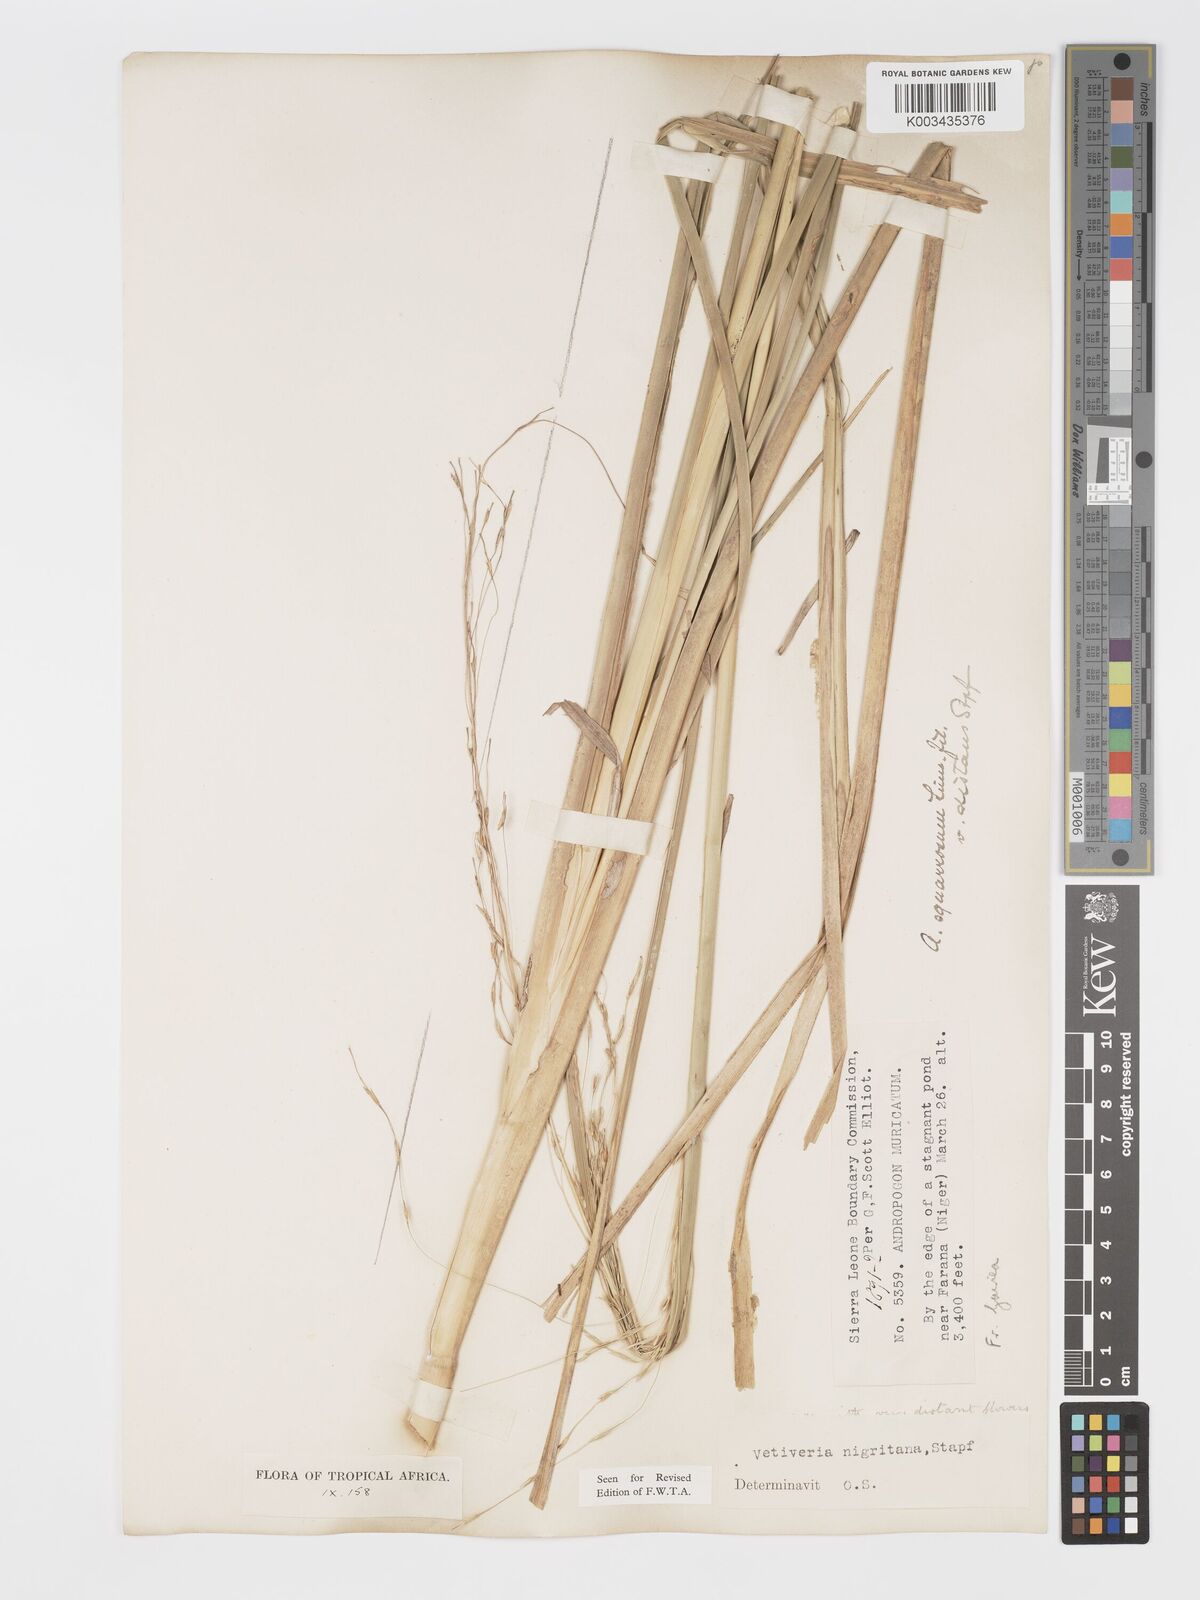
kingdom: Plantae
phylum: Tracheophyta
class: Liliopsida
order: Poales
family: Poaceae
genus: Chrysopogon
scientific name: Chrysopogon nigritanus
